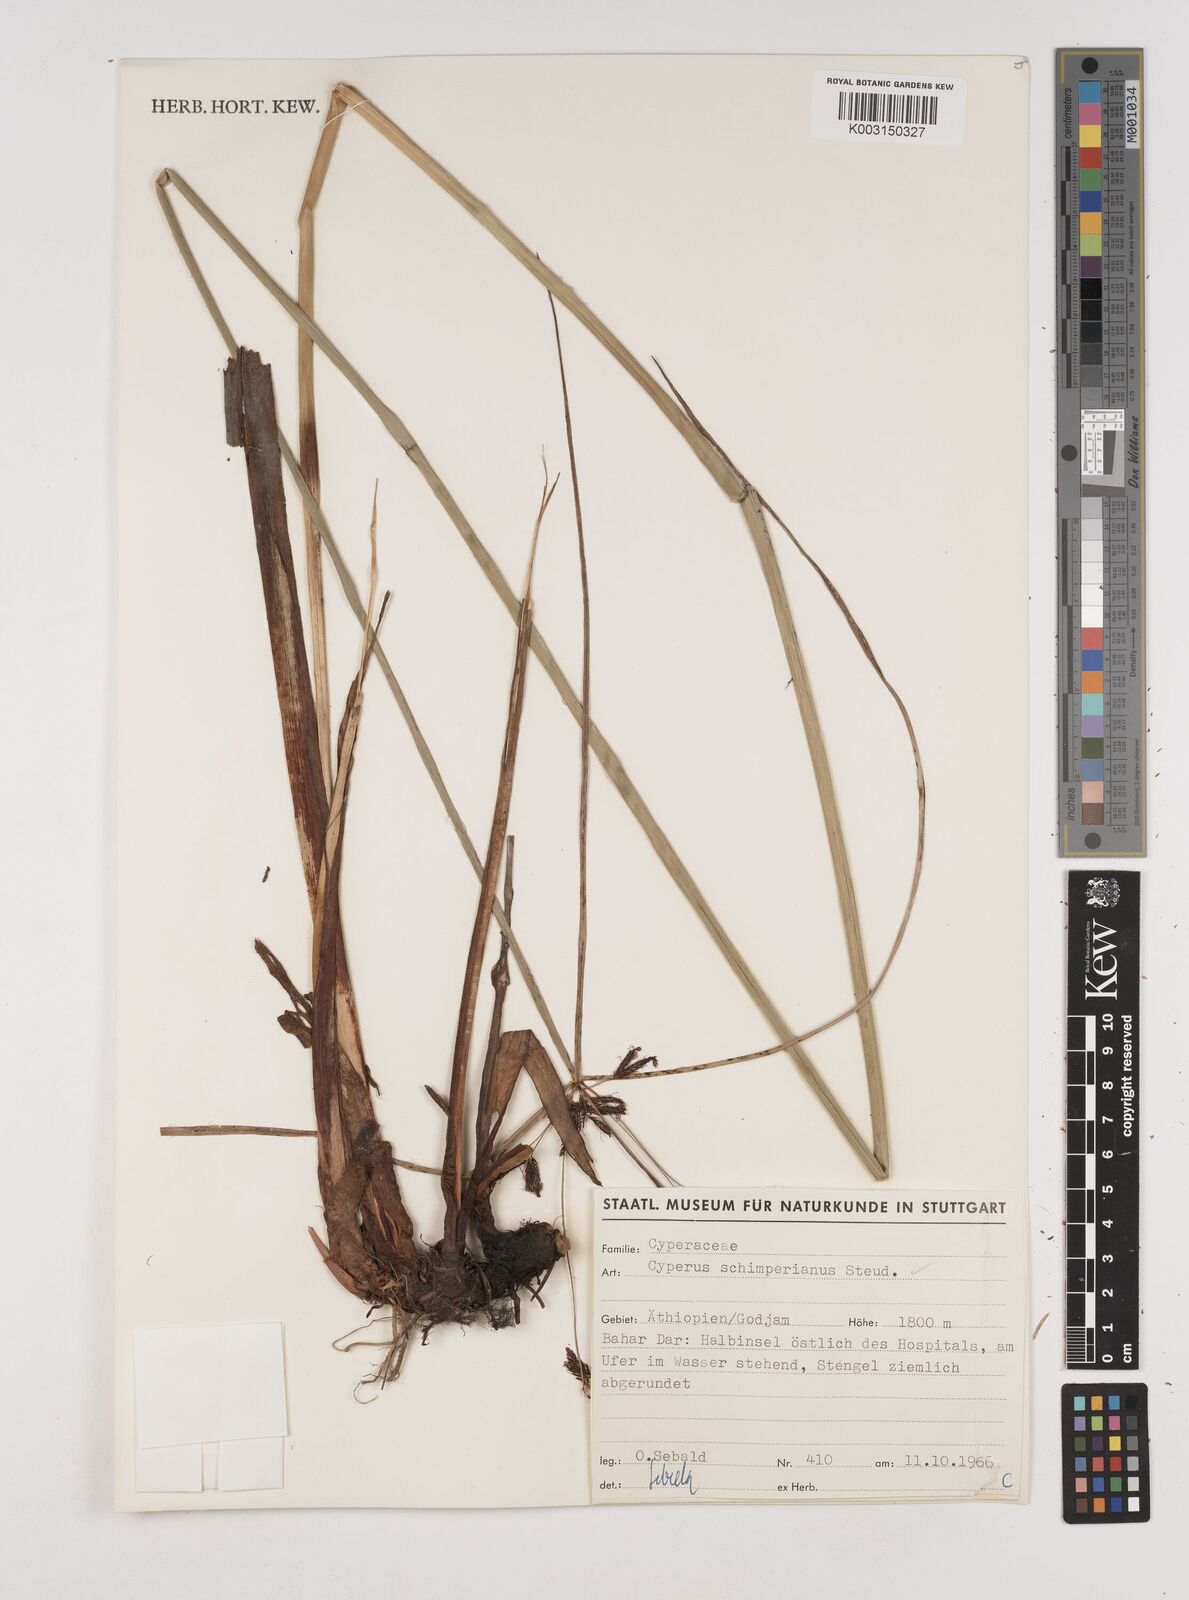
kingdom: Plantae
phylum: Tracheophyta
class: Liliopsida
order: Poales
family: Cyperaceae
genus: Cyperus
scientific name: Cyperus schimperianus
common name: Schimper flatsedge
